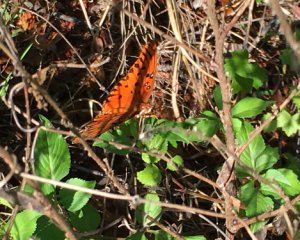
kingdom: Animalia
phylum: Arthropoda
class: Insecta
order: Lepidoptera
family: Nymphalidae
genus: Dione
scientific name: Dione vanillae
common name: Gulf Fritillary
